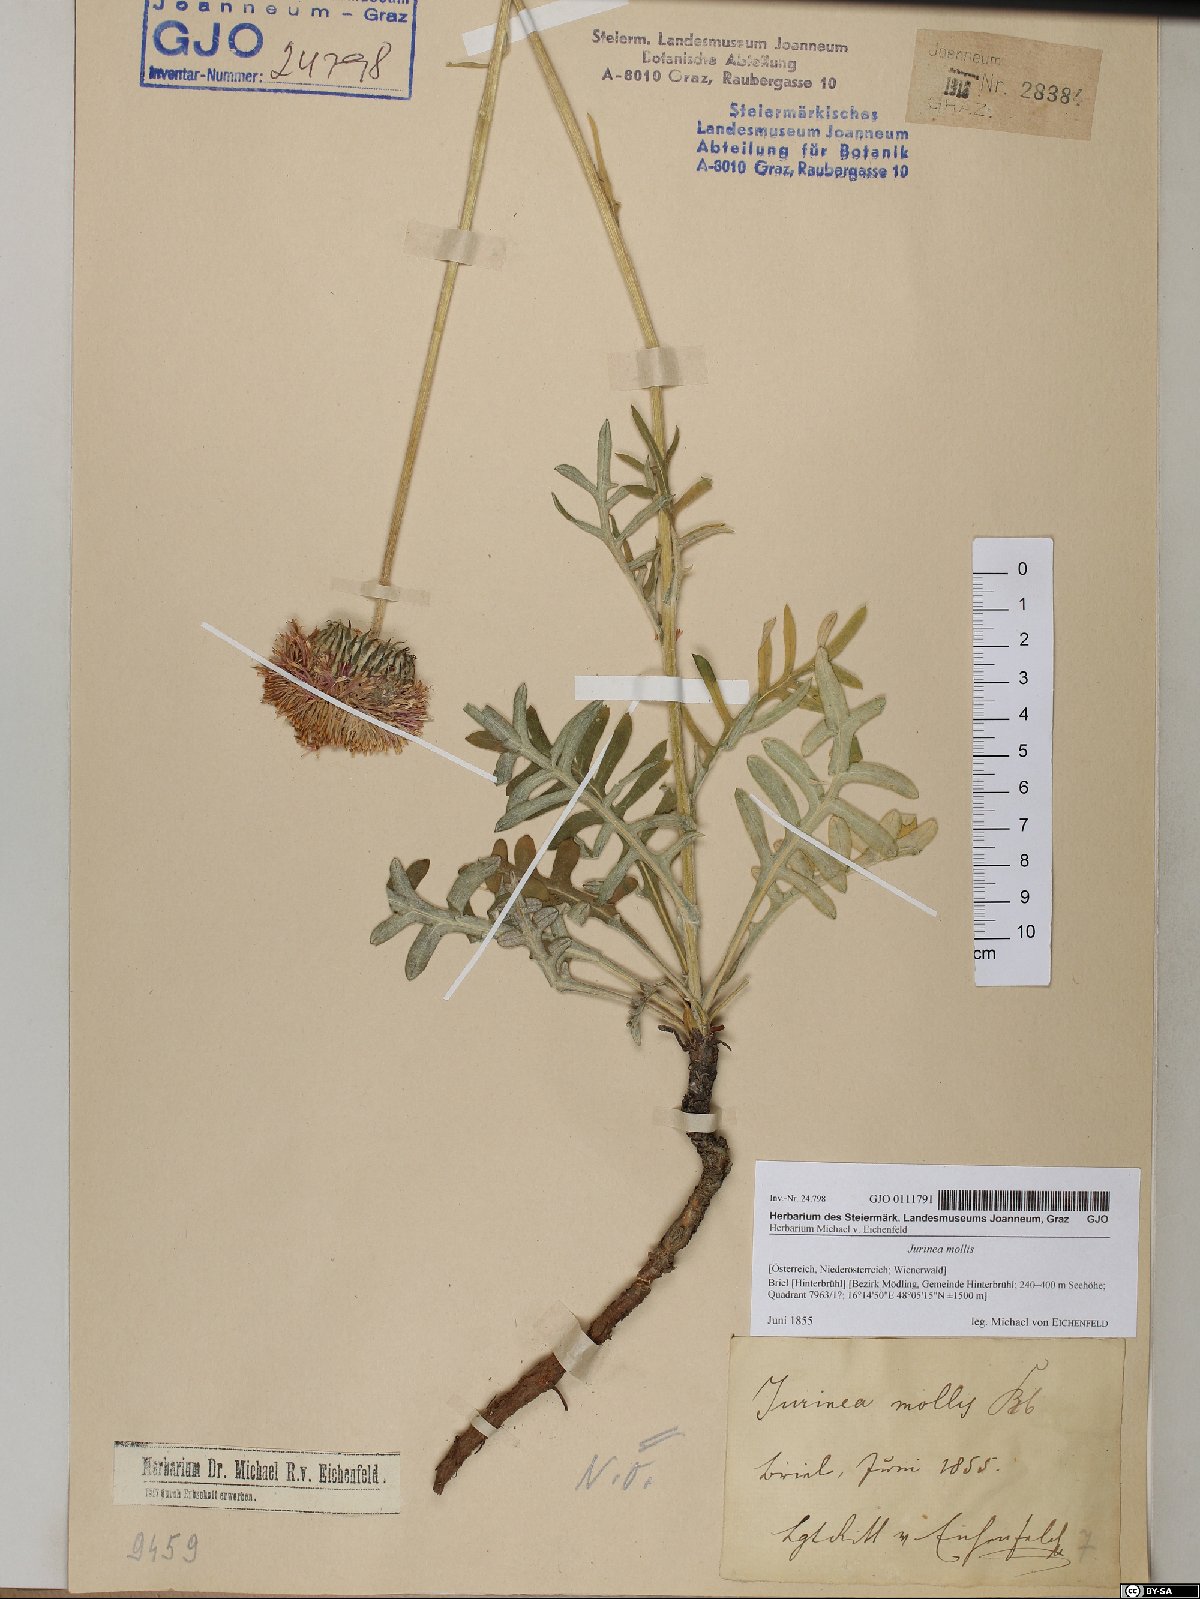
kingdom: Plantae
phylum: Tracheophyta
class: Magnoliopsida
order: Asterales
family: Asteraceae
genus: Jurinea
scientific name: Jurinea mollis
